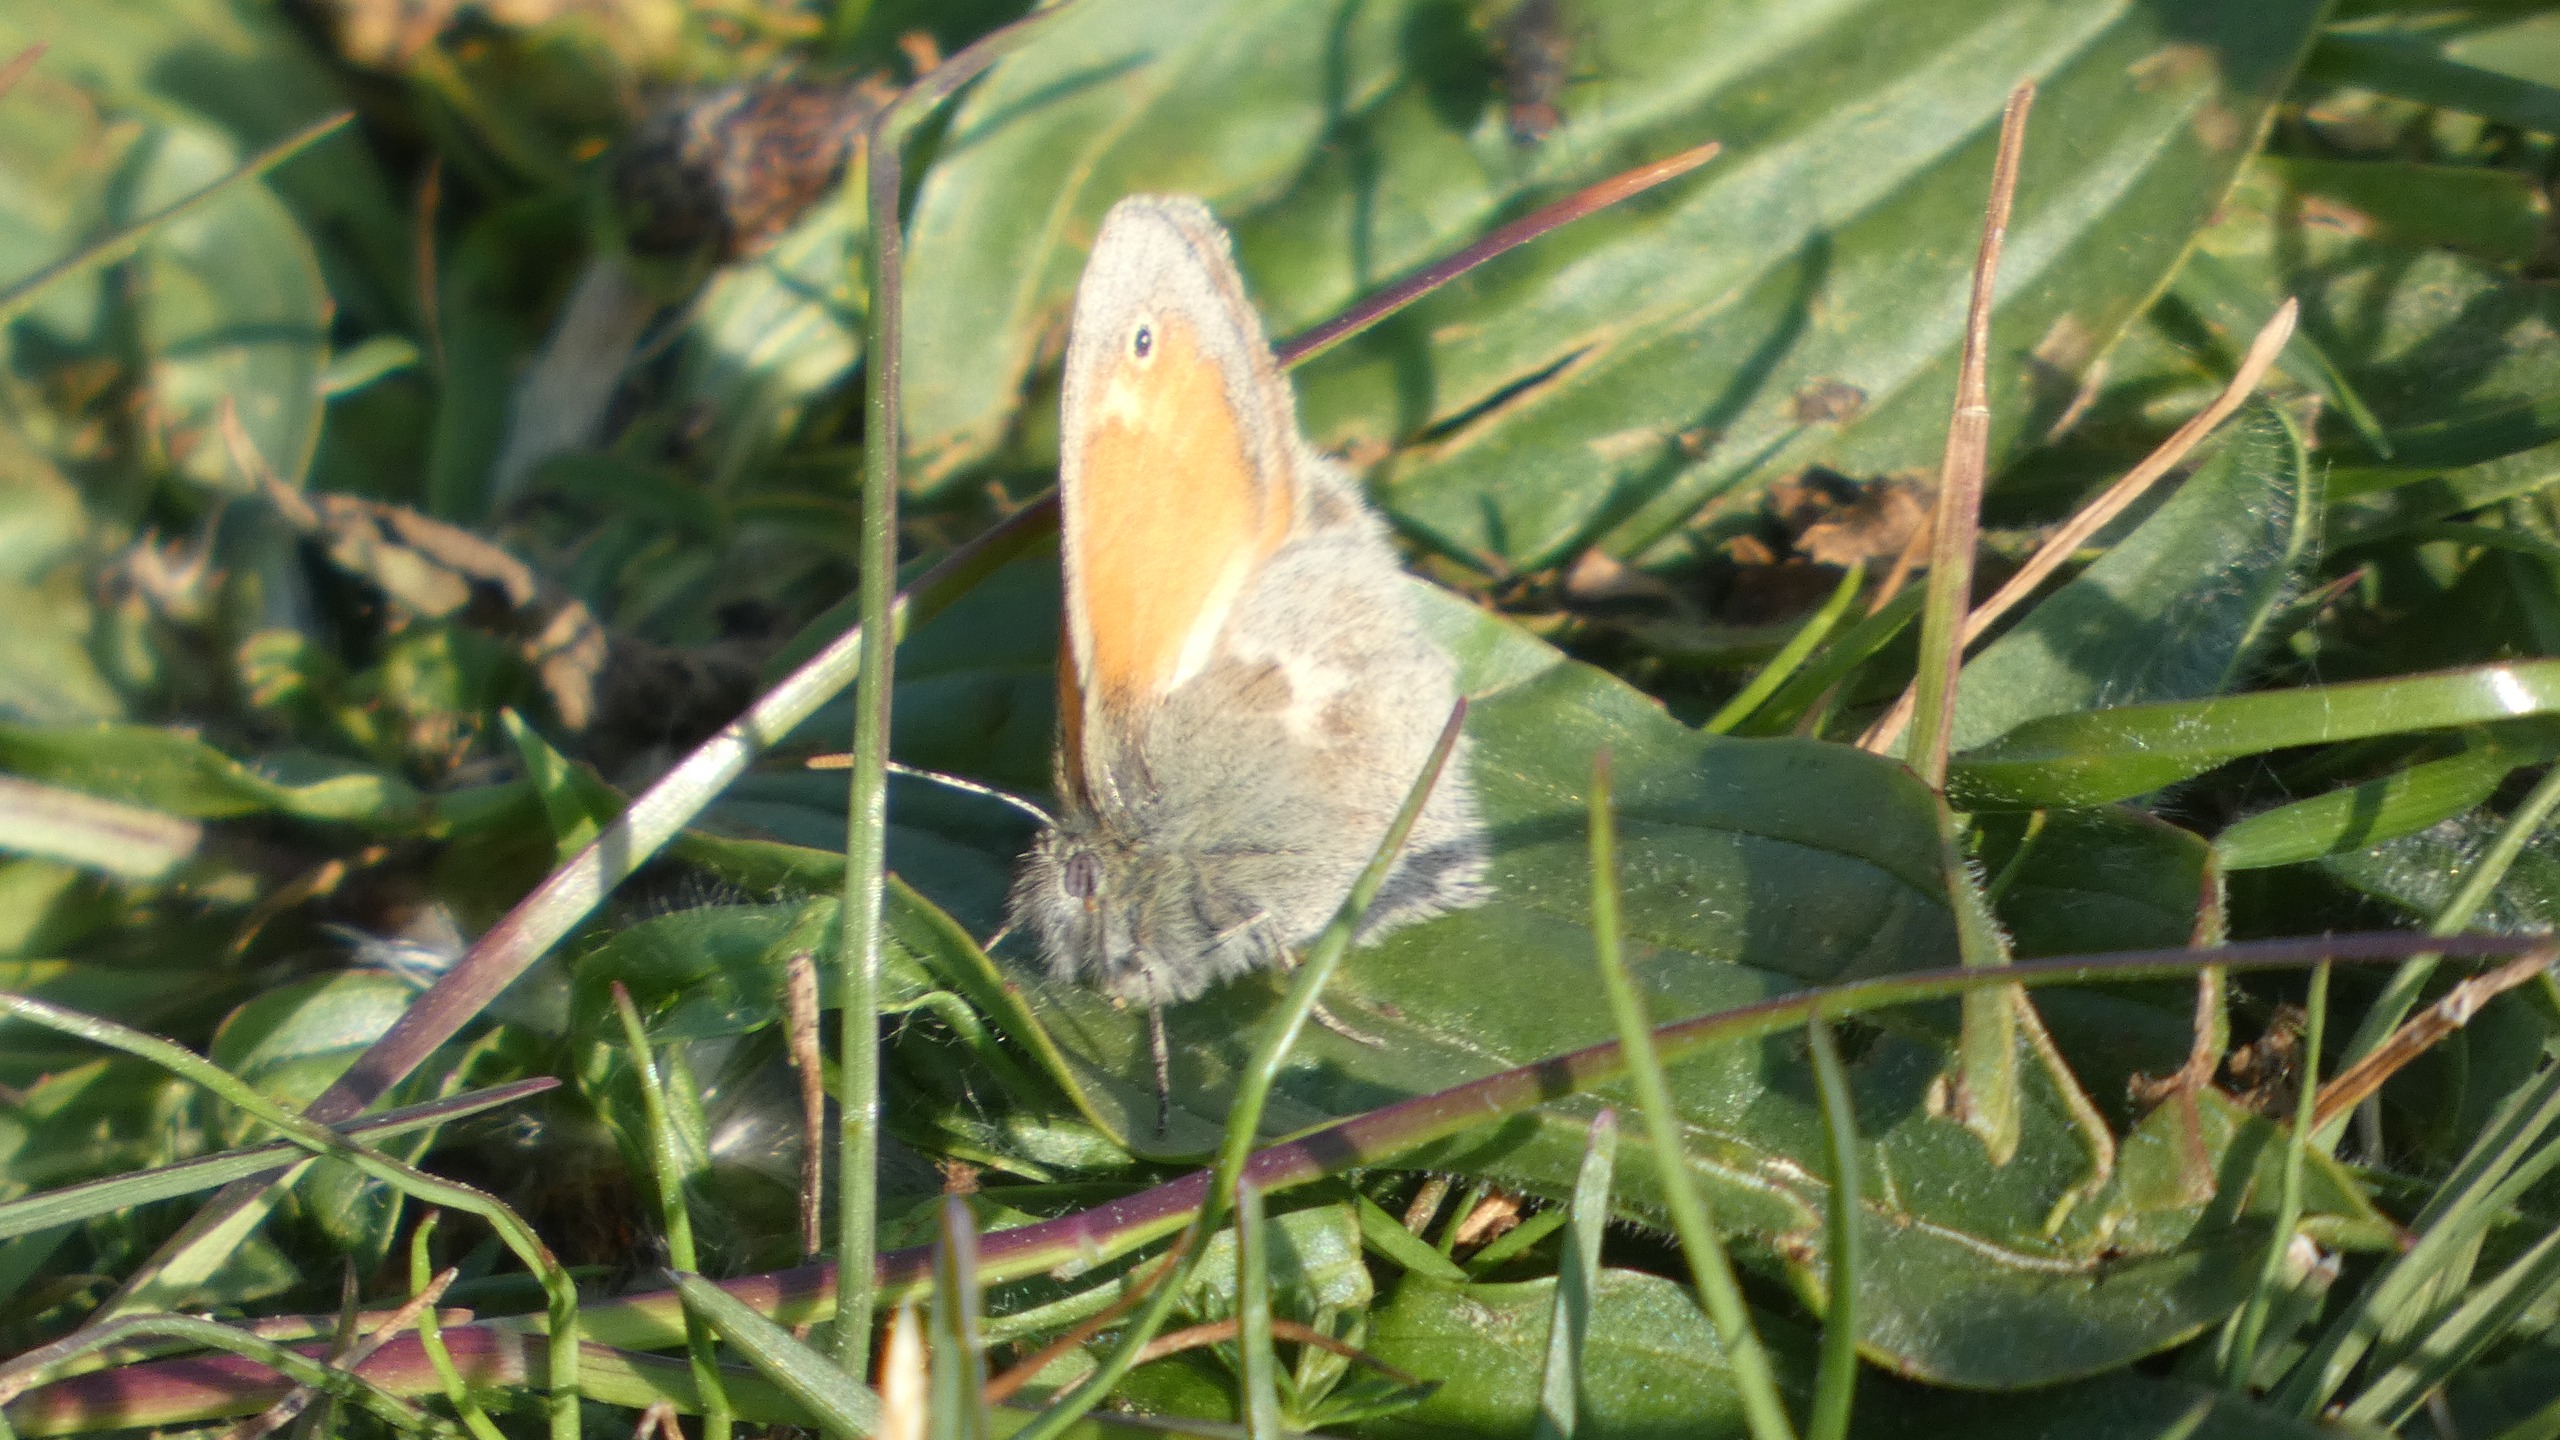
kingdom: Animalia
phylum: Arthropoda
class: Insecta
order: Lepidoptera
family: Nymphalidae
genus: Coenonympha
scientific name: Coenonympha pamphilus
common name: Okkergul randøje
